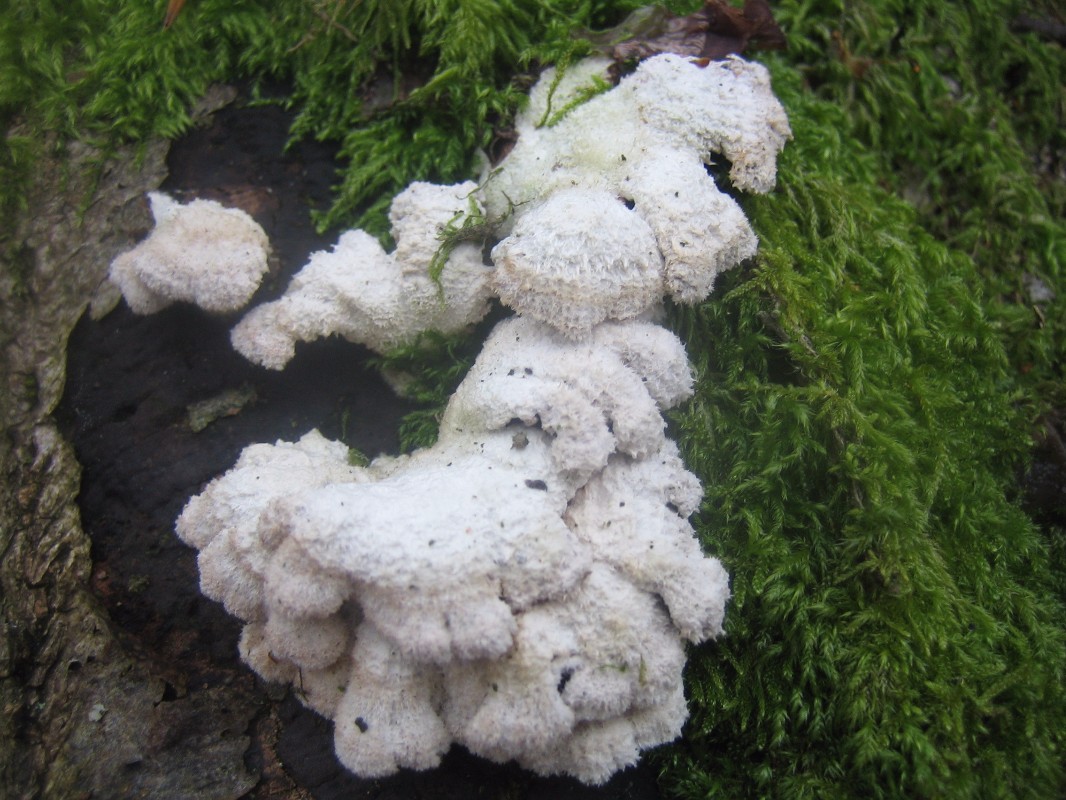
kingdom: Fungi
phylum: Basidiomycota
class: Agaricomycetes
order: Agaricales
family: Schizophyllaceae
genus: Schizophyllum
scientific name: Schizophyllum commune
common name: kløvblad
